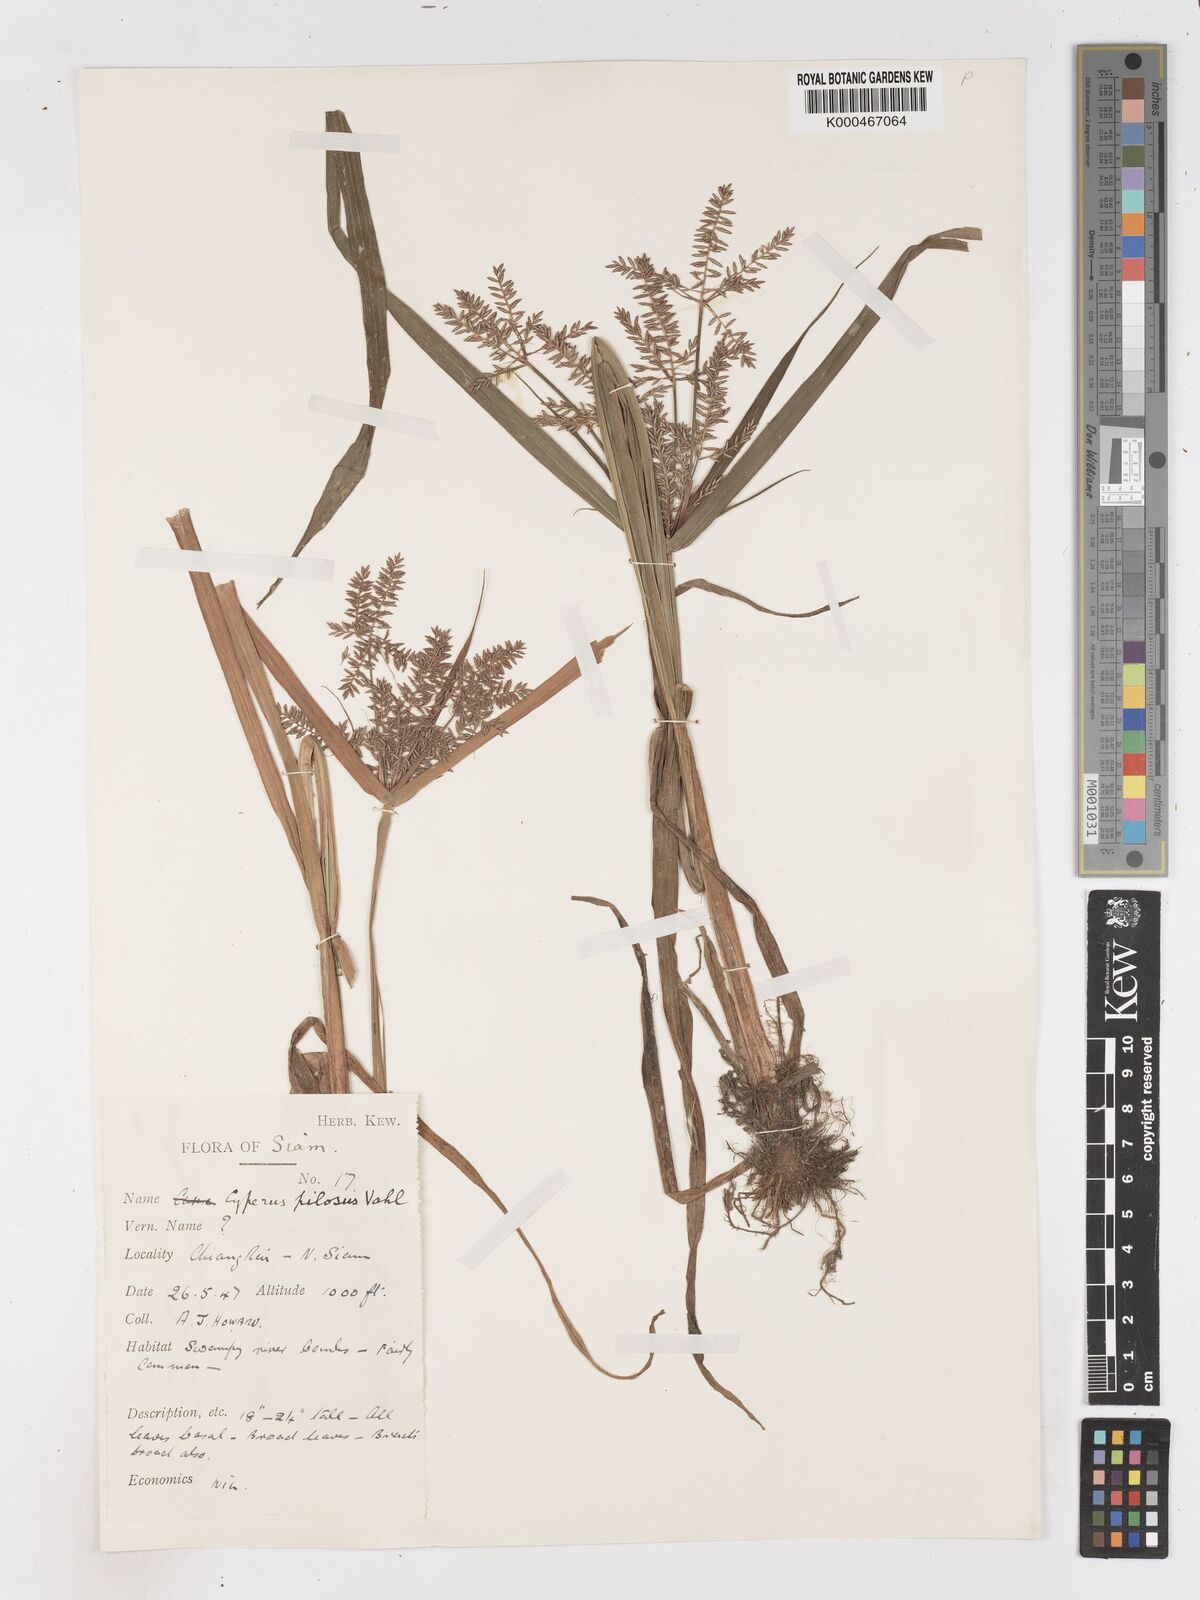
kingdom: Plantae
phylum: Tracheophyta
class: Liliopsida
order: Poales
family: Cyperaceae
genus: Cyperus
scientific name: Cyperus pilosus
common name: Fuzzy flatsedge
